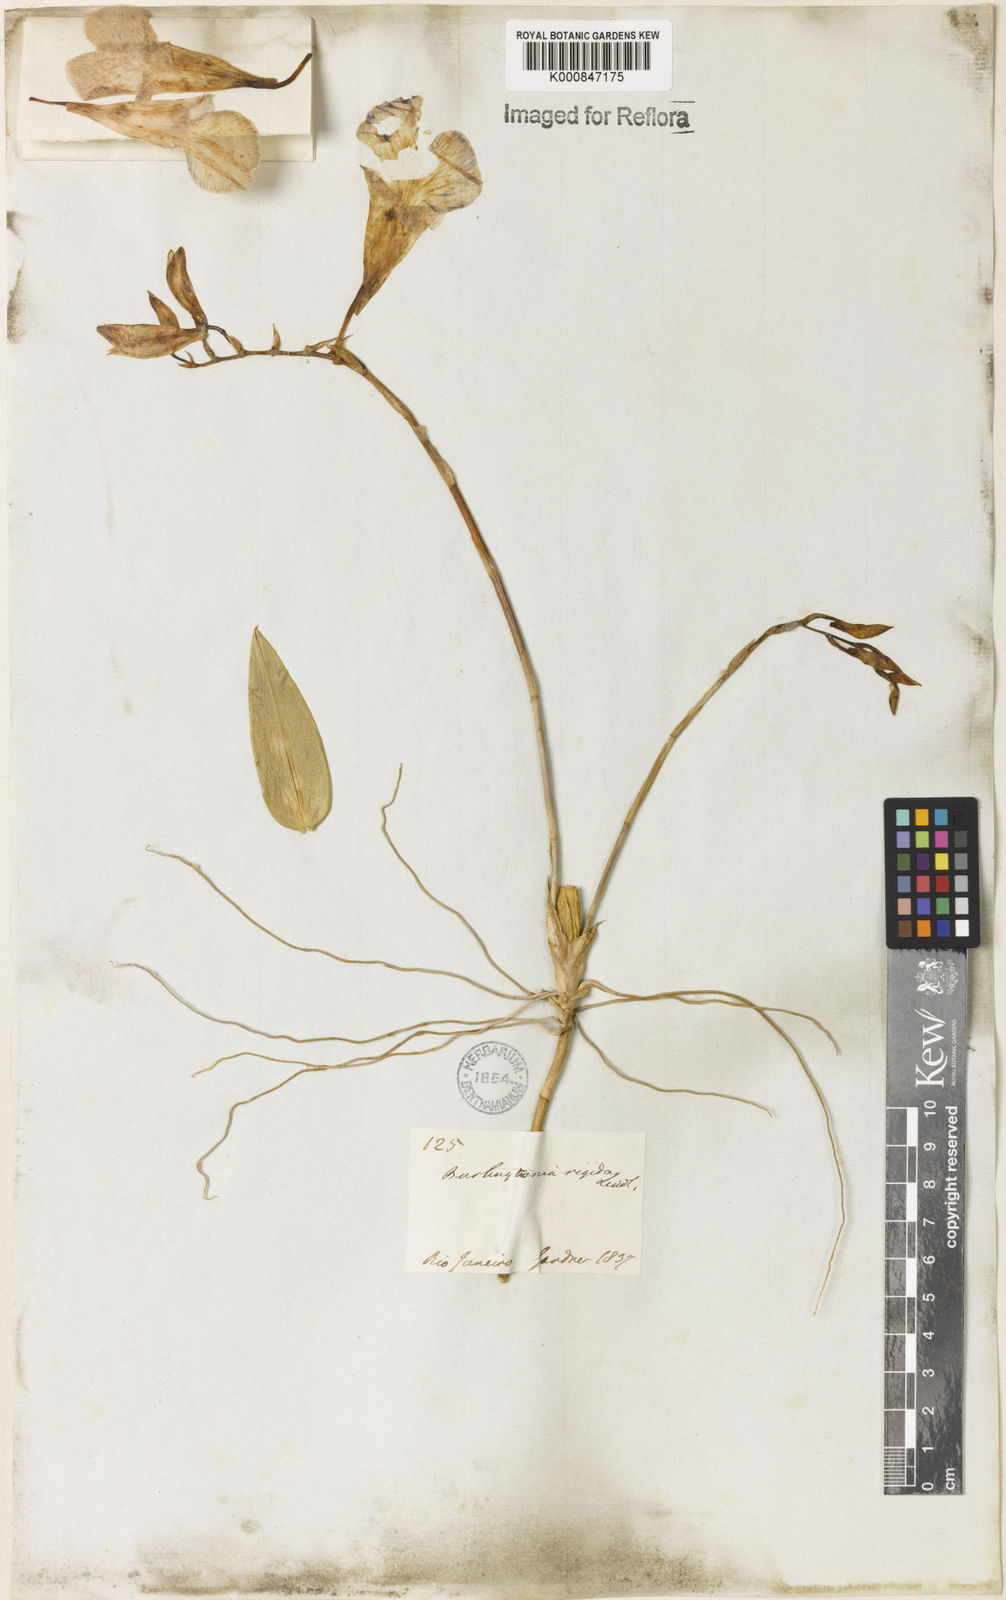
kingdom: Plantae
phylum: Tracheophyta
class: Liliopsida
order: Asparagales
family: Orchidaceae
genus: Rodriguezia
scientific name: Rodriguezia rigida
